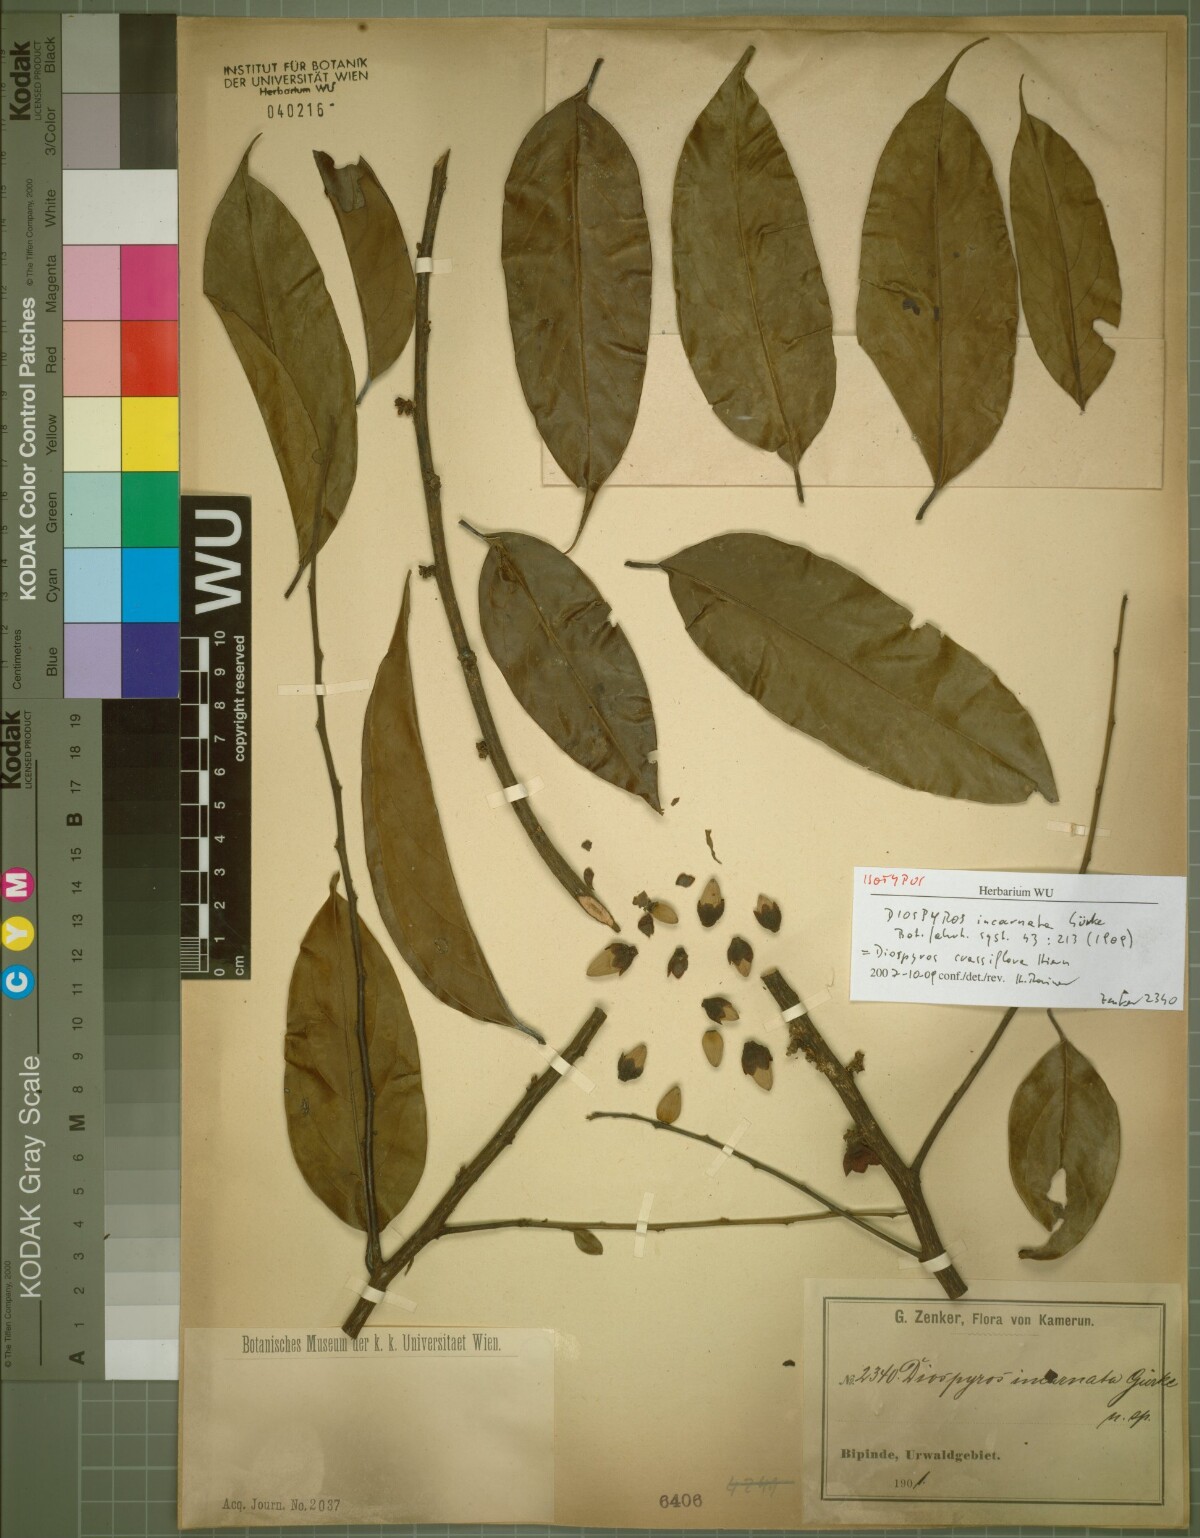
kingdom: Plantae
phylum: Tracheophyta
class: Magnoliopsida
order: Ericales
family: Ebenaceae
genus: Diospyros
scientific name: Diospyros crassiflora
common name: Ebony
